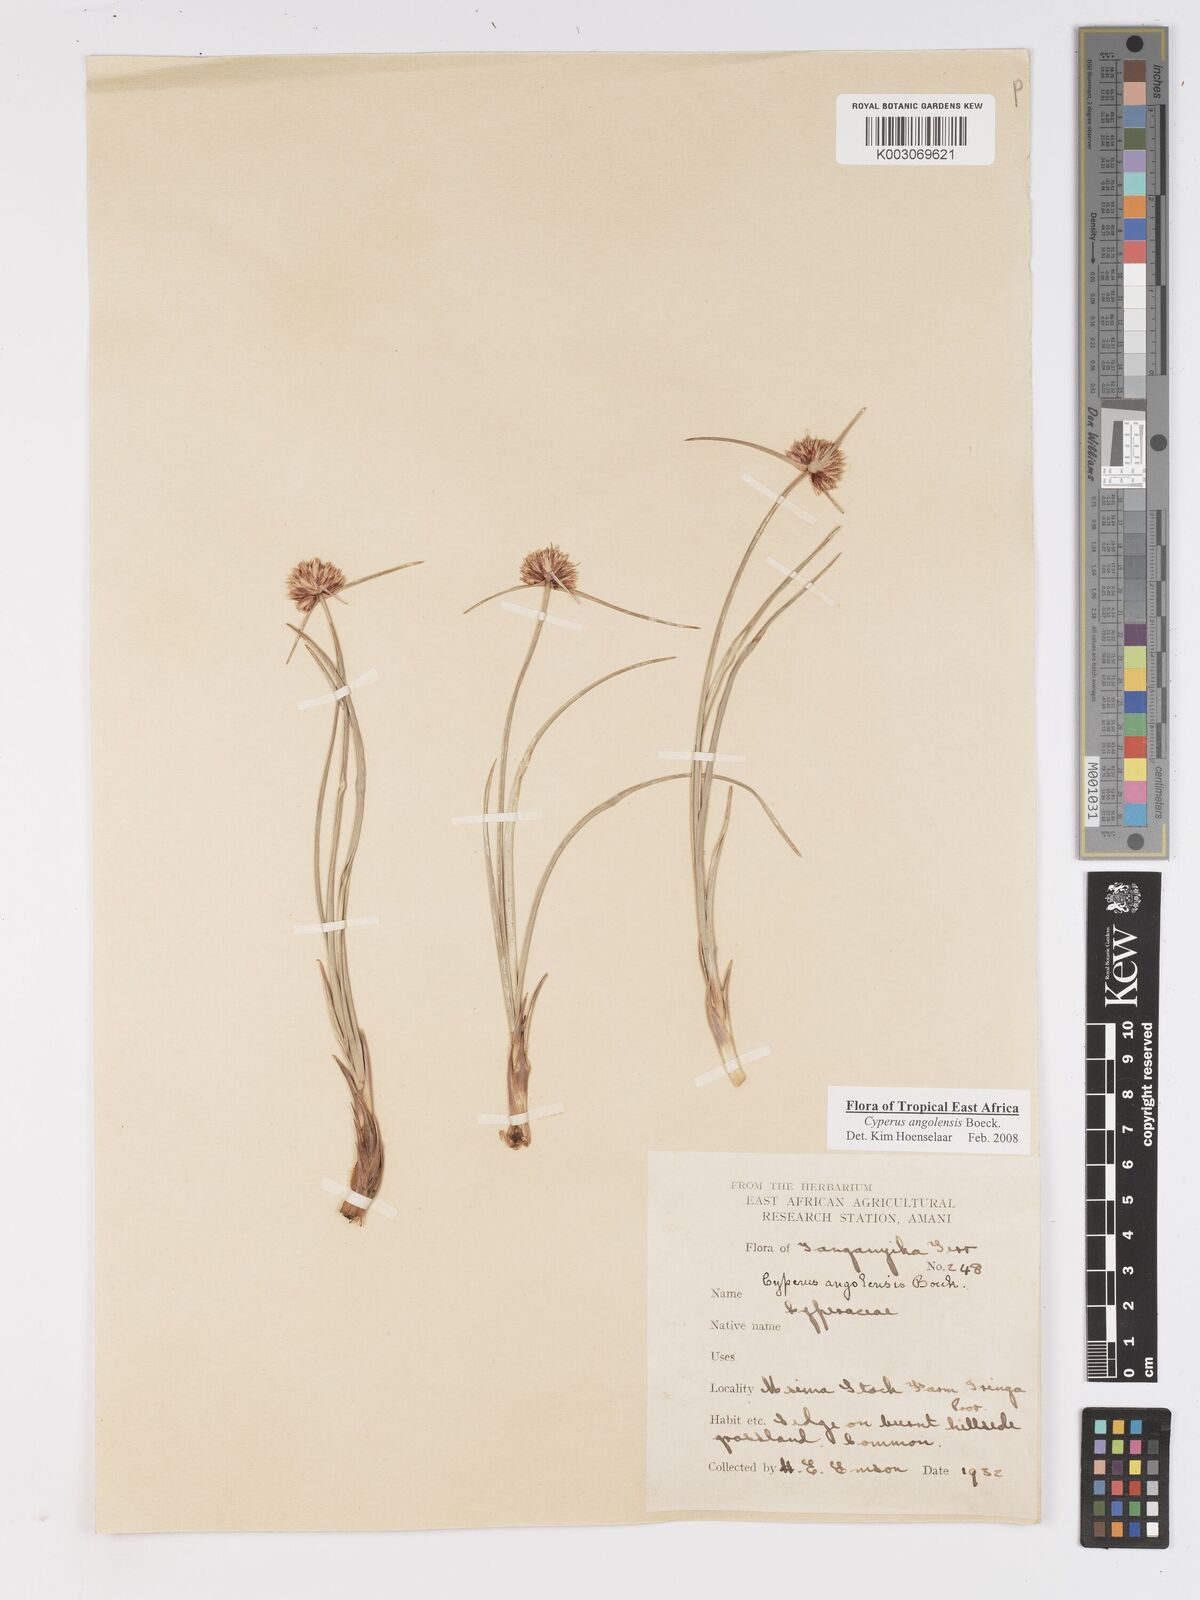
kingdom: Plantae
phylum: Tracheophyta
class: Liliopsida
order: Poales
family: Cyperaceae
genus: Cyperus
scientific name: Cyperus angolensis
